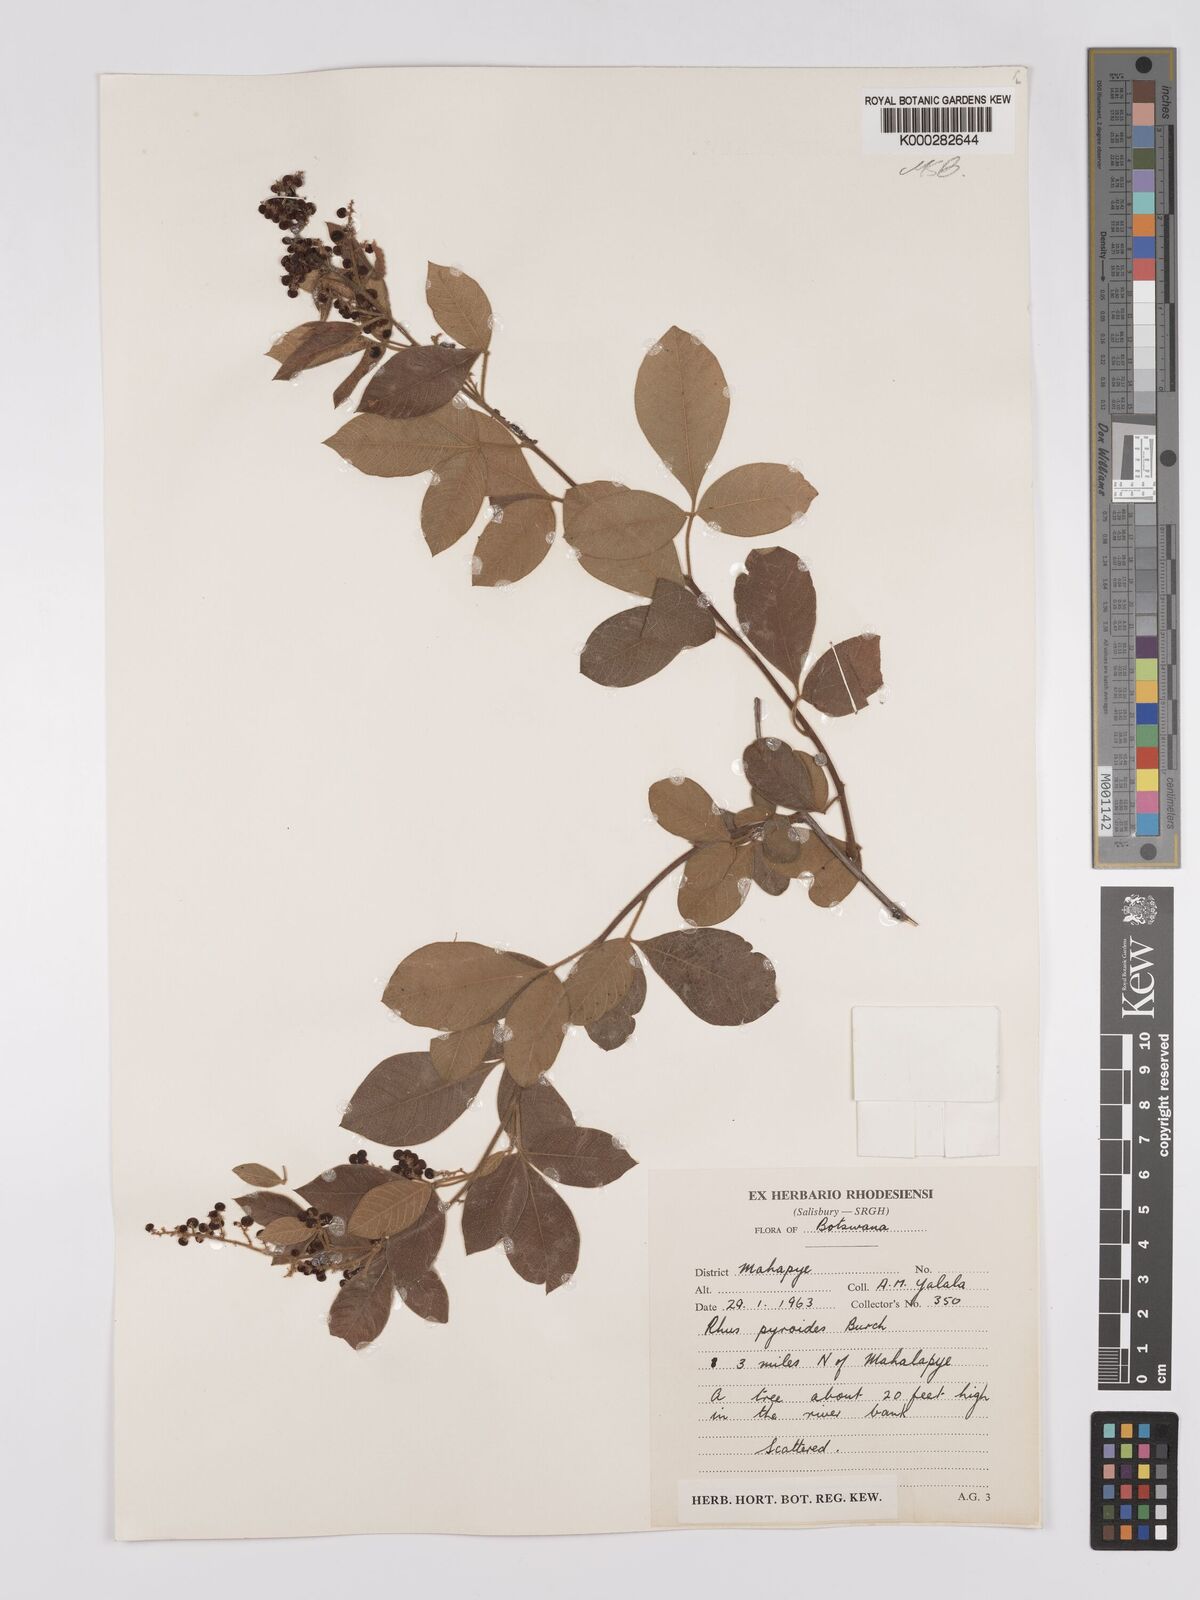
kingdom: Plantae
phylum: Tracheophyta
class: Magnoliopsida
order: Sapindales
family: Anacardiaceae
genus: Searsia
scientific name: Searsia pyroides
